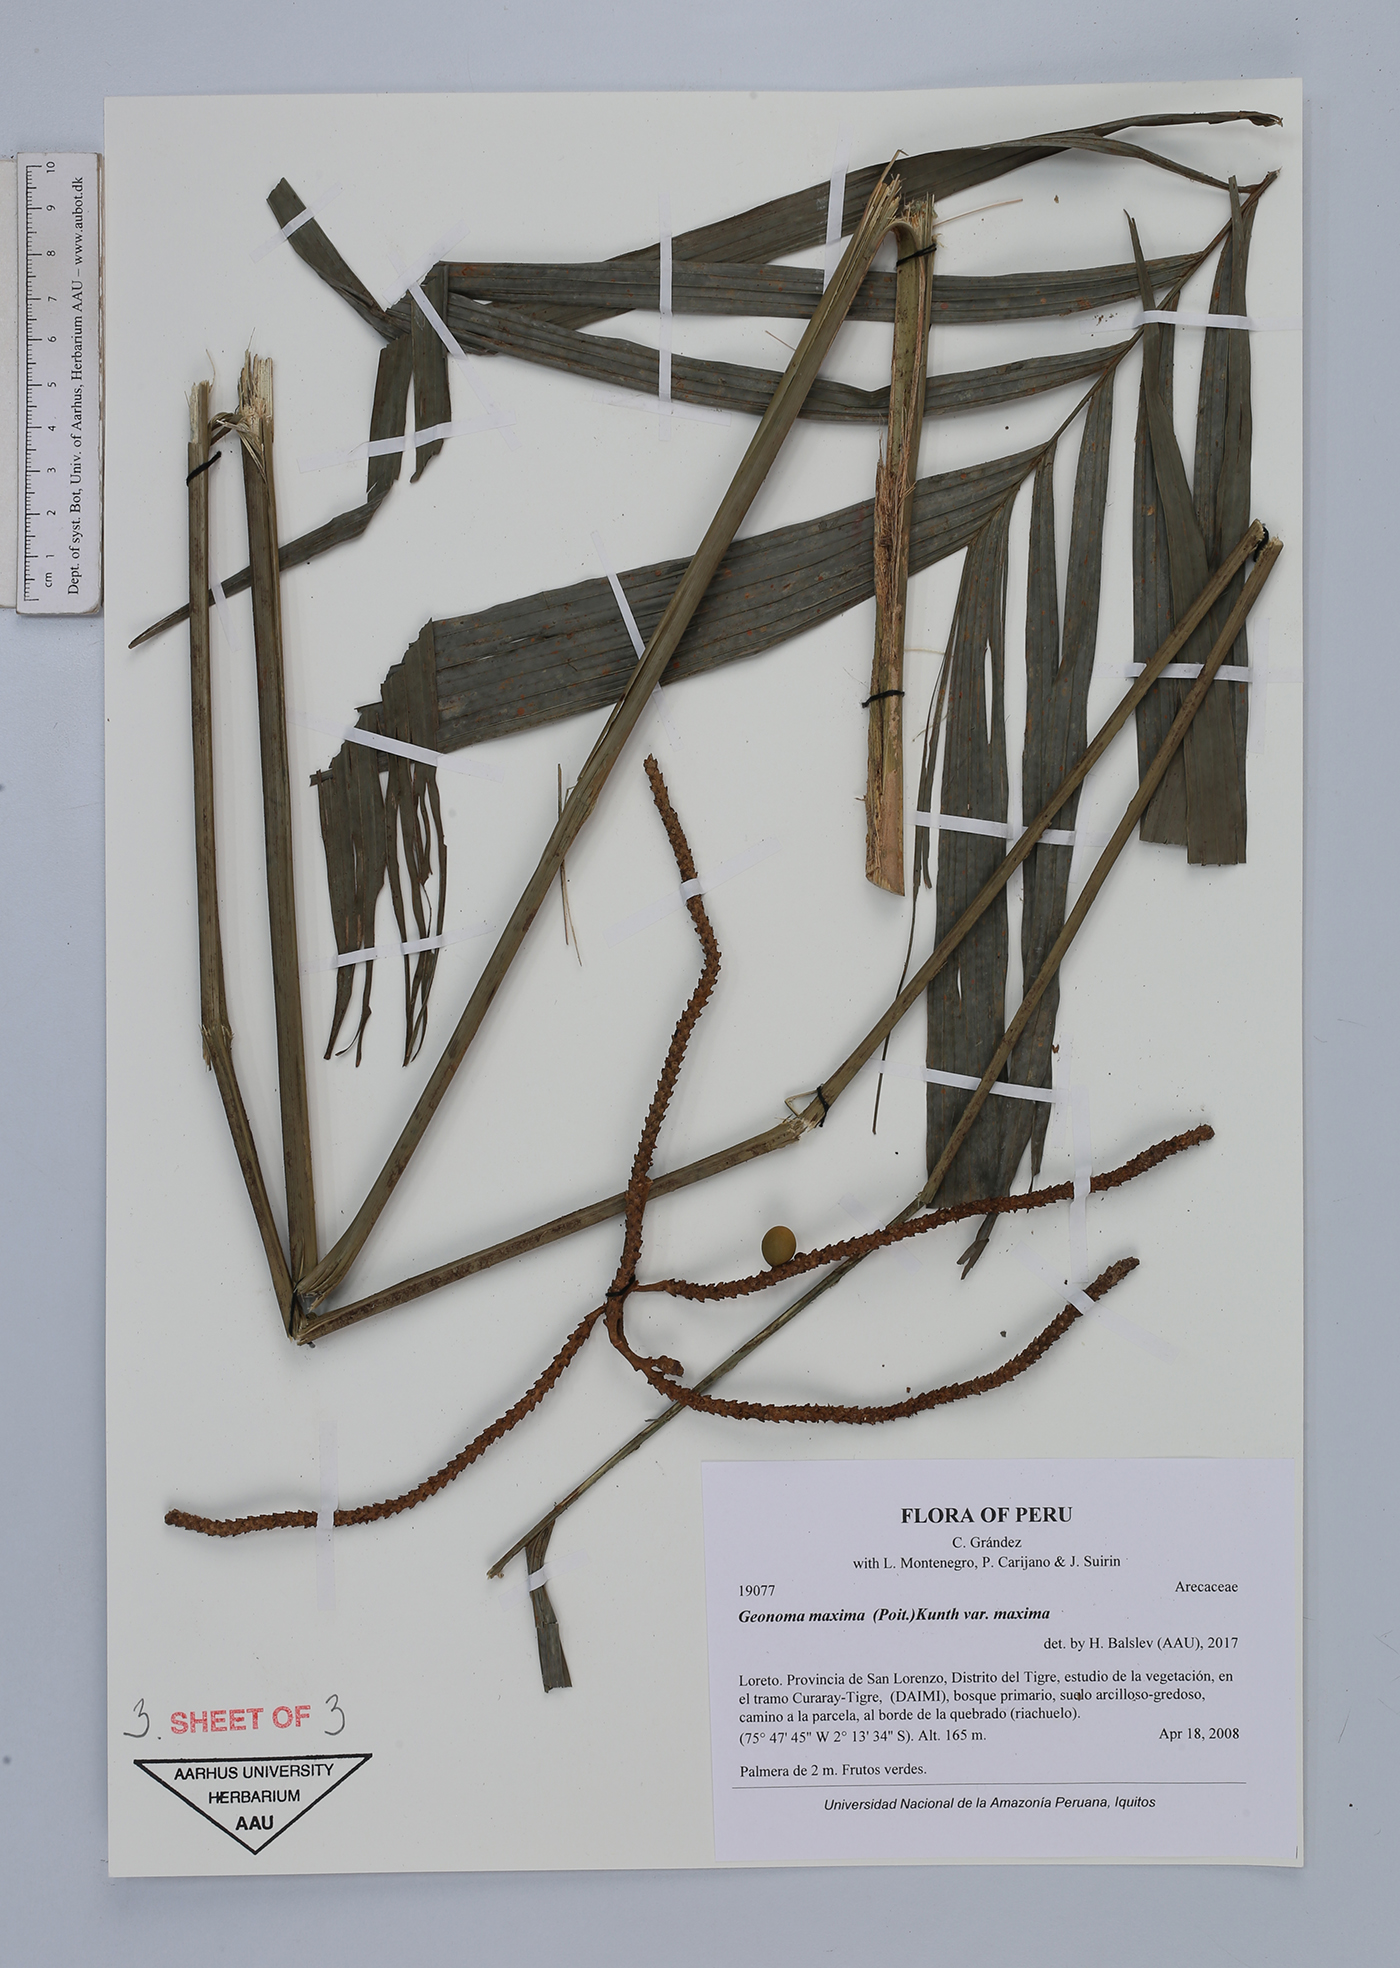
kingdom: Plantae
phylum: Tracheophyta
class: Liliopsida
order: Arecales
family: Arecaceae
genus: Geonoma
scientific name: Geonoma maxima
